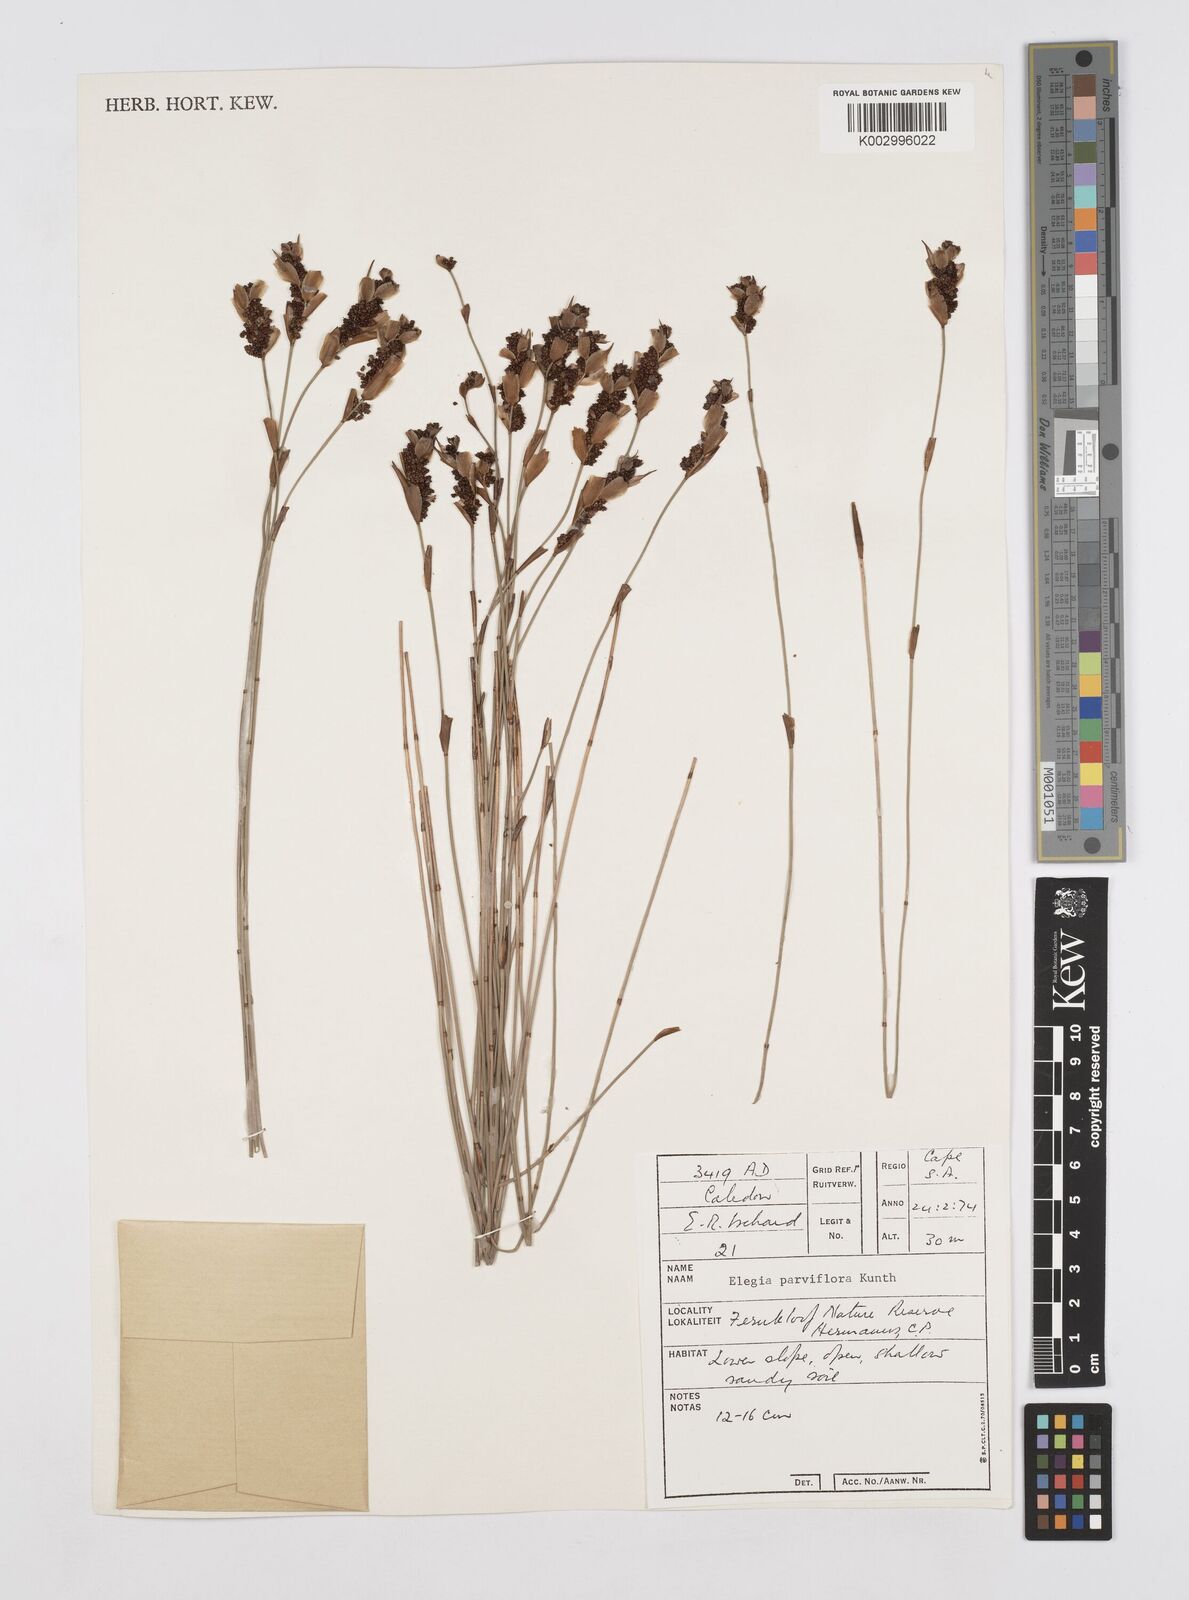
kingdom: Plantae
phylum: Tracheophyta
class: Liliopsida
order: Poales
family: Restionaceae
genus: Cannomois
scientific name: Cannomois parviflora
